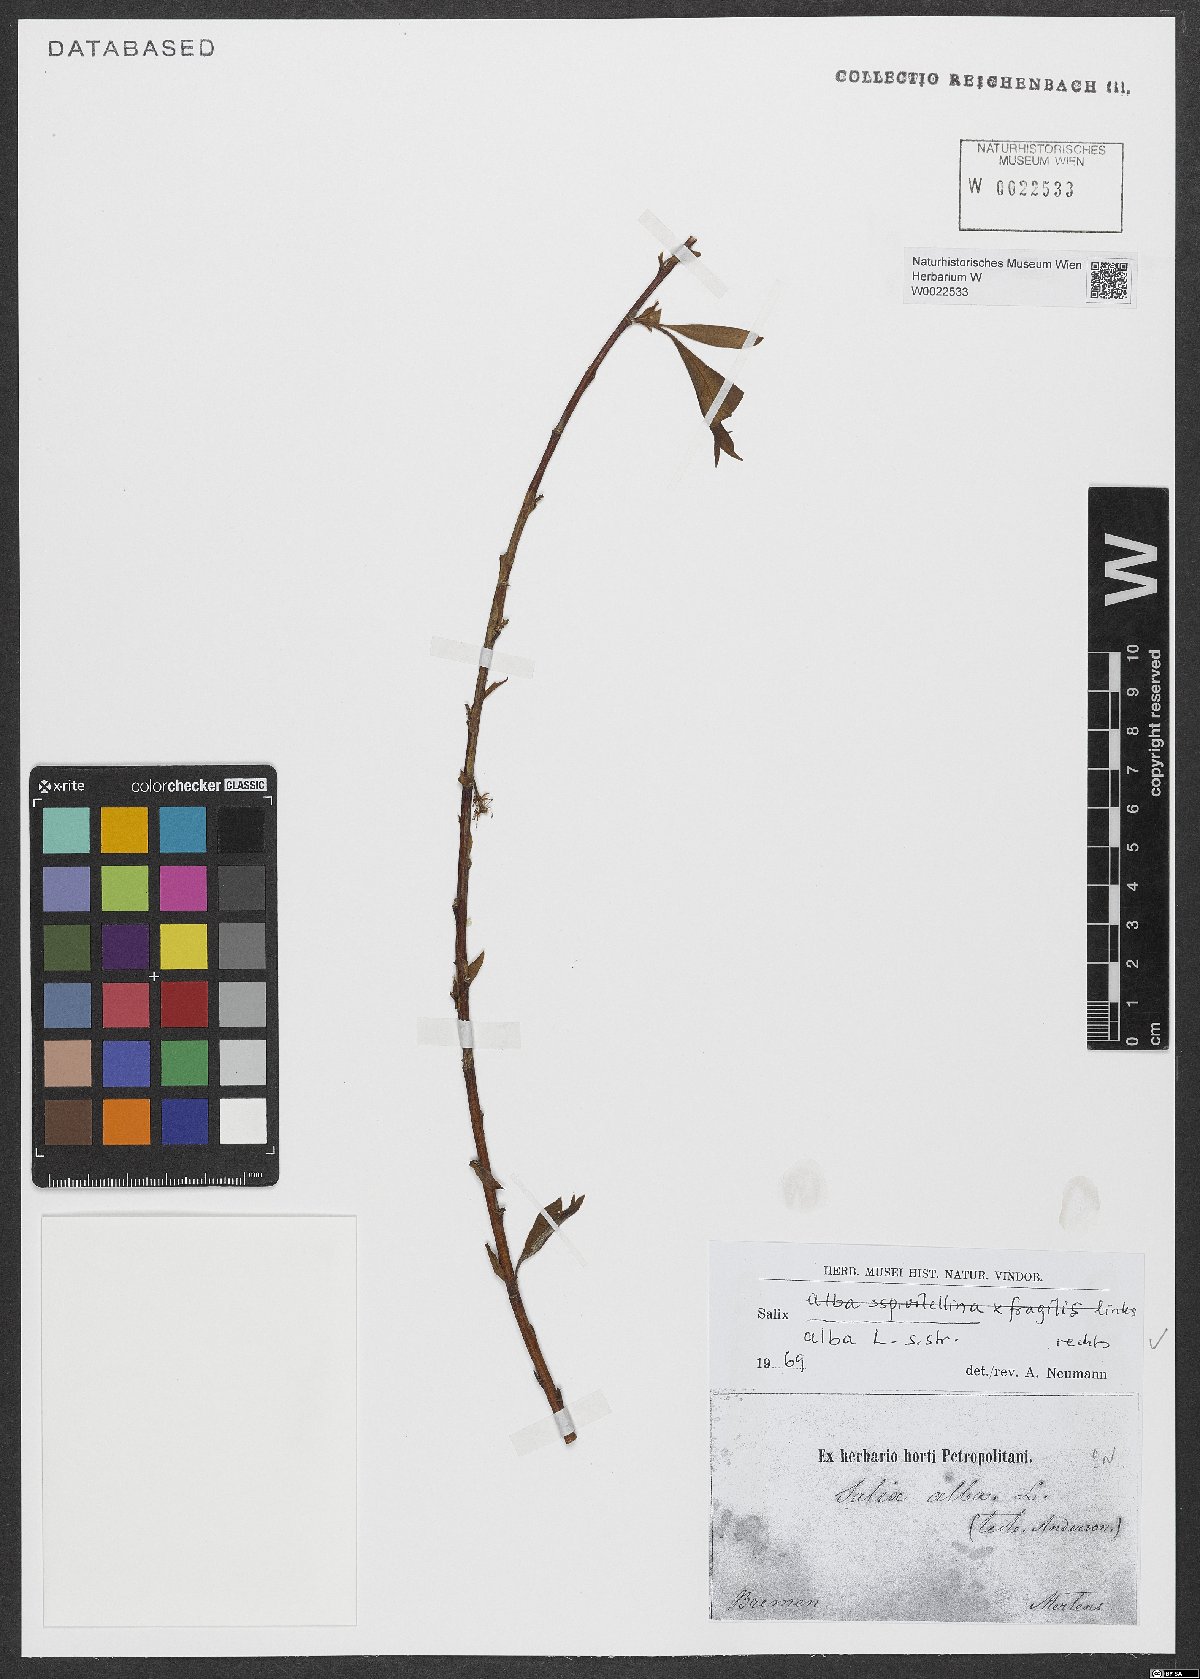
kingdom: Plantae
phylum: Tracheophyta
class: Magnoliopsida
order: Malpighiales
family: Salicaceae
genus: Salix
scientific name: Salix alba
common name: White willow
